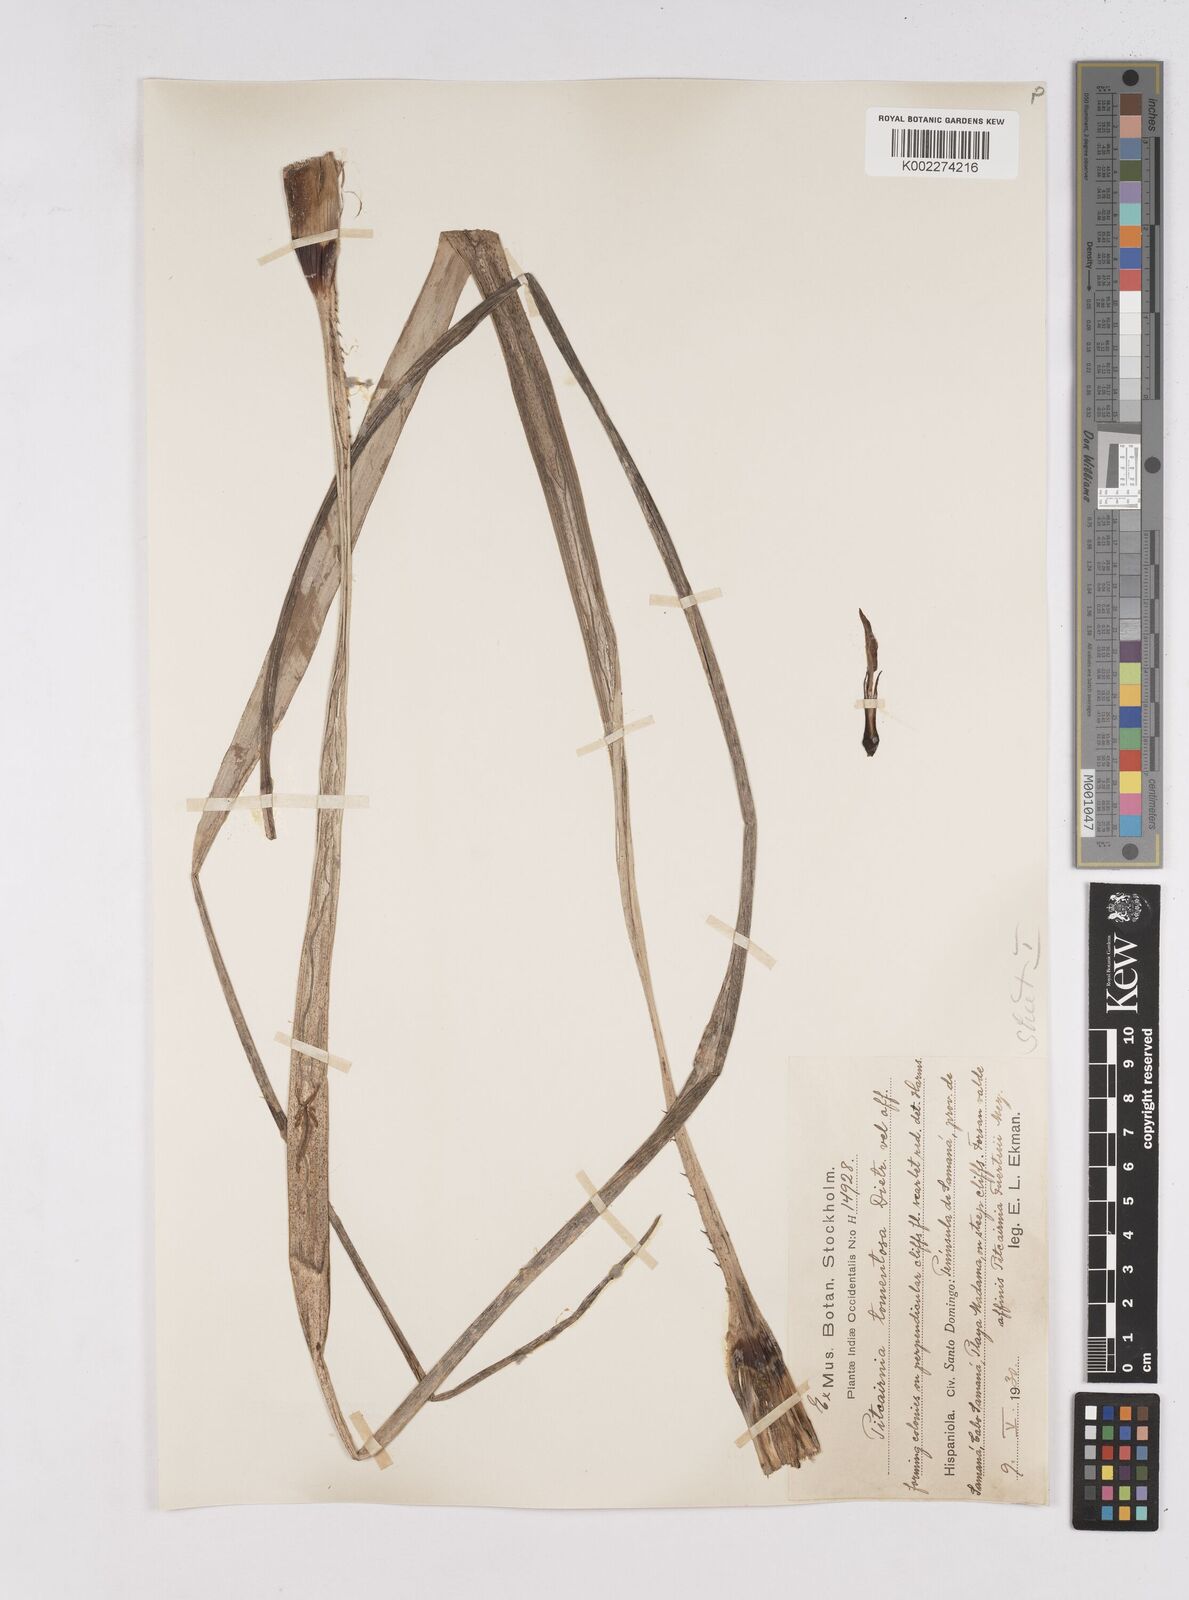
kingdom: Plantae
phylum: Tracheophyta
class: Liliopsida
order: Poales
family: Bromeliaceae
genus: Pitcairnia
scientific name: Pitcairnia fuertesii
